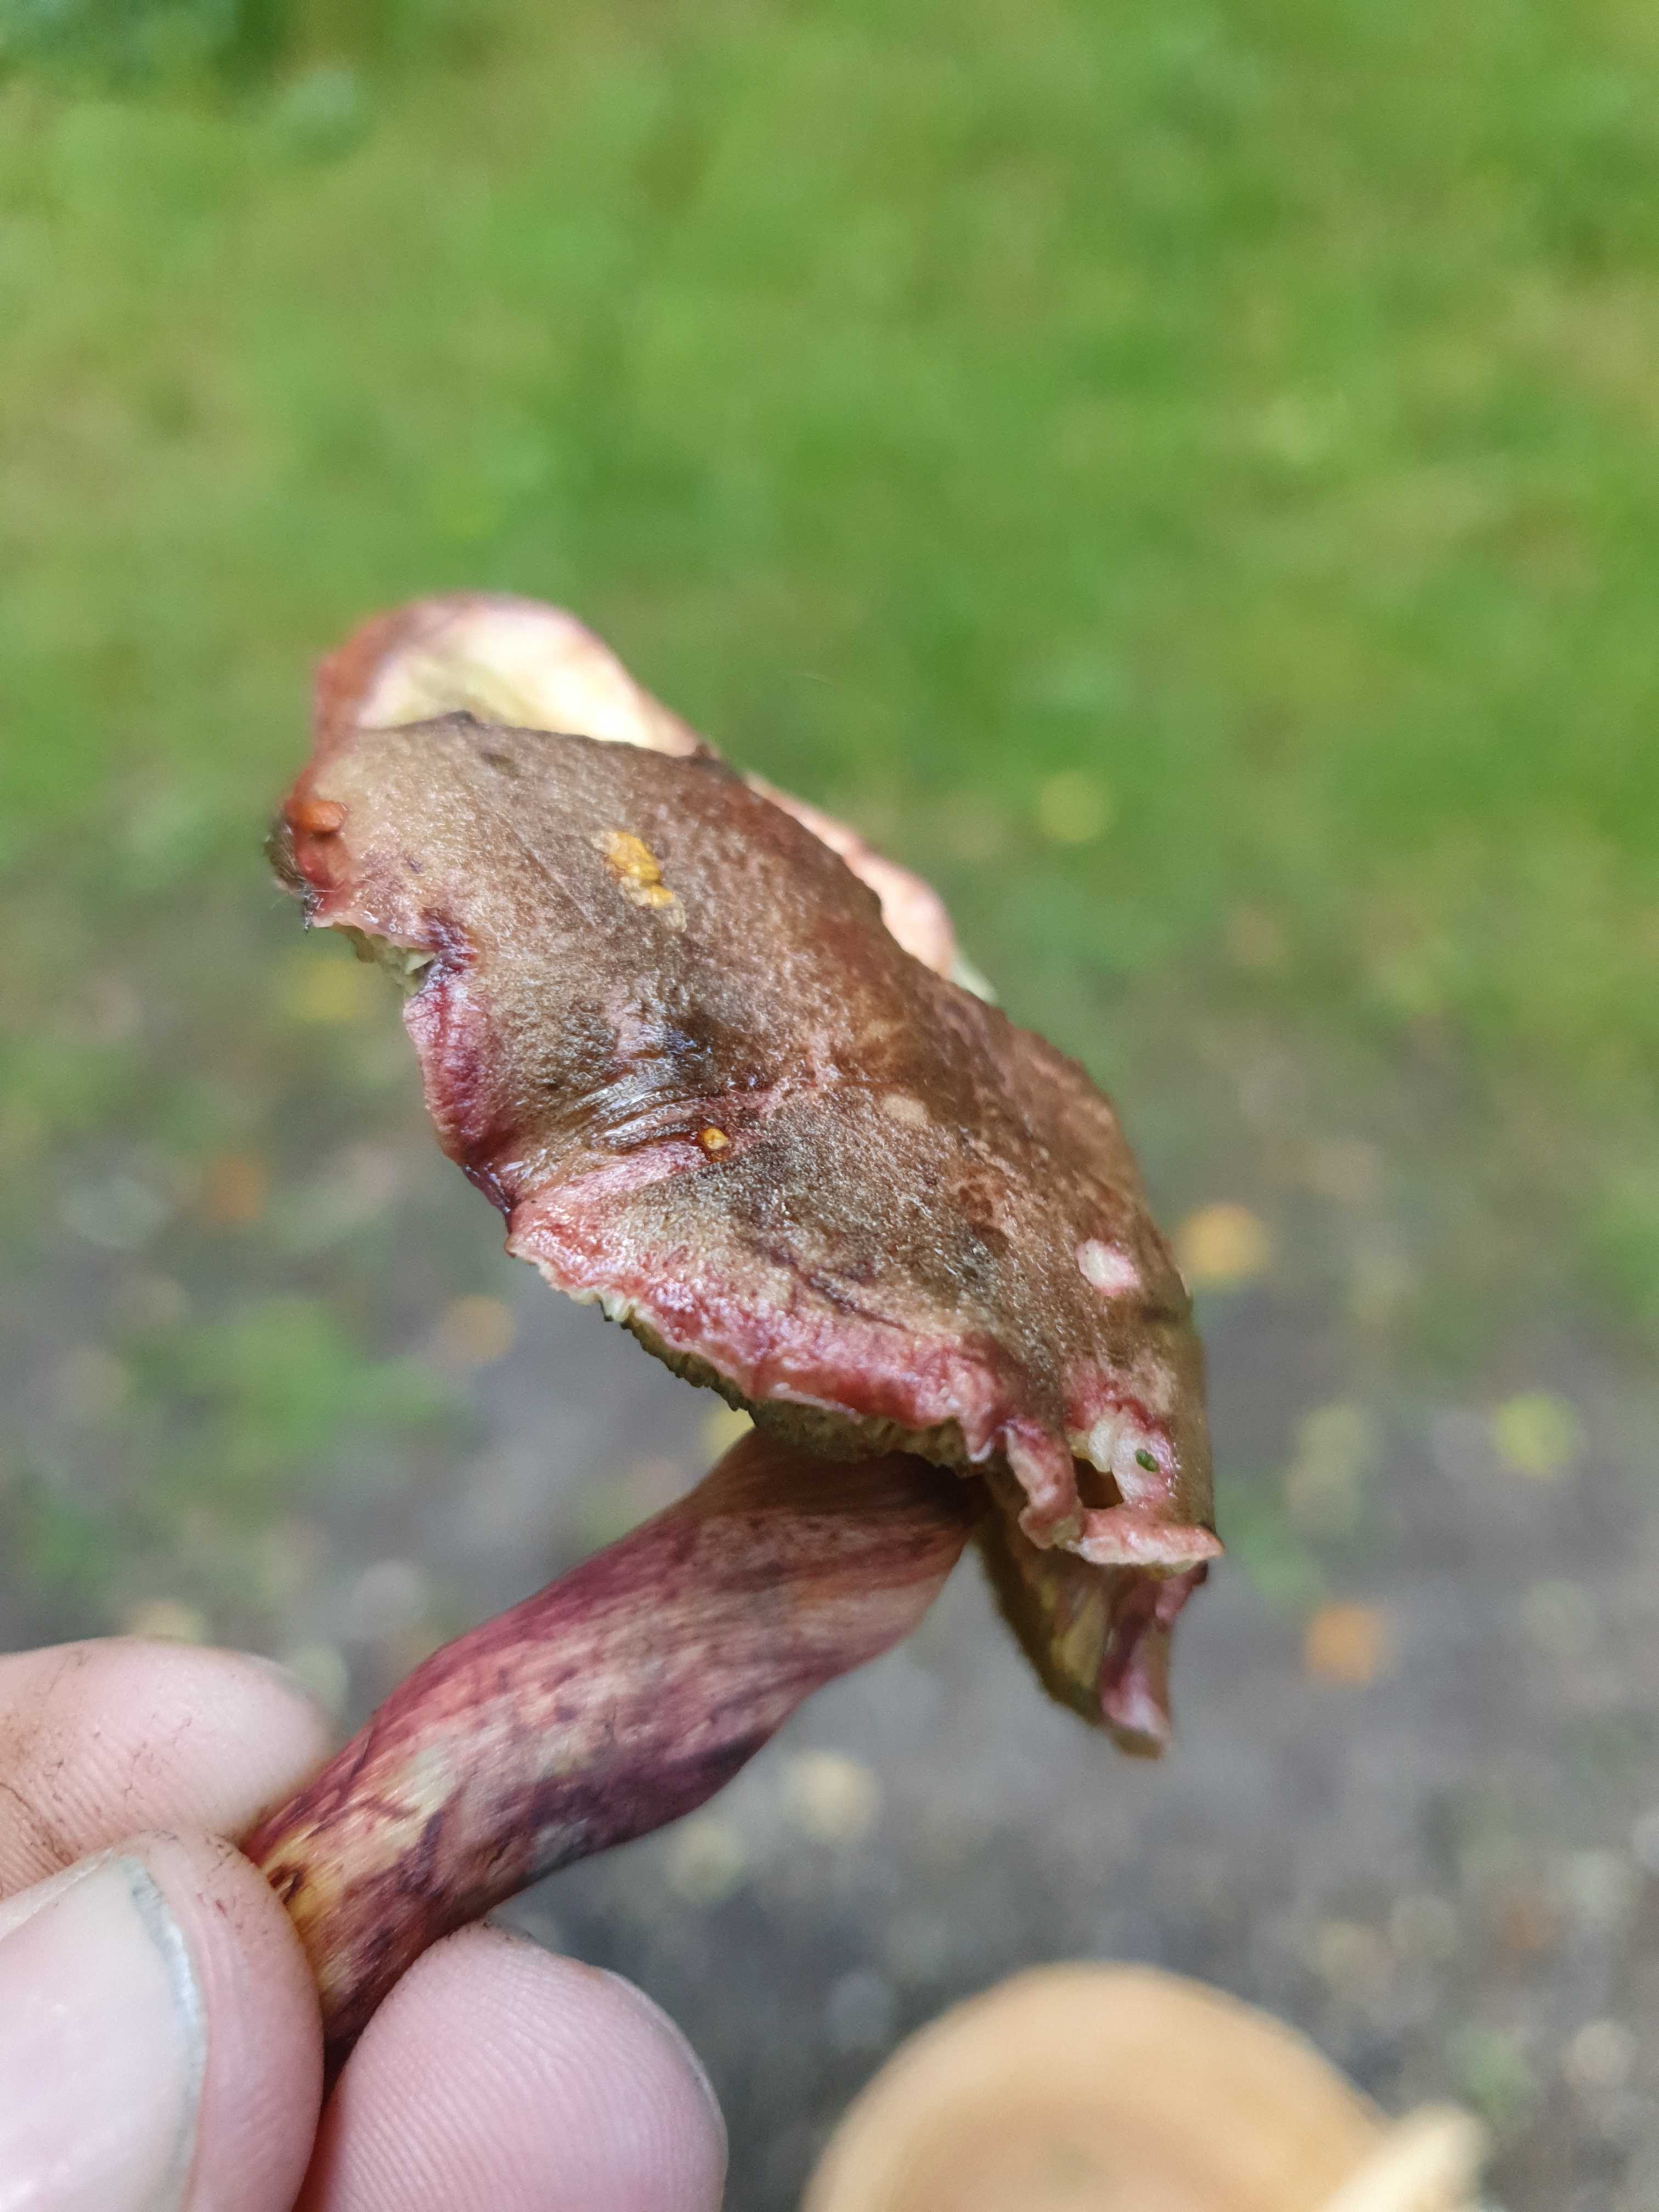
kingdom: Fungi
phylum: Basidiomycota
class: Agaricomycetes
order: Boletales
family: Boletaceae
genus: Xerocomellus
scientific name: Xerocomellus chrysenteron
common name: rødsprukken rørhat
